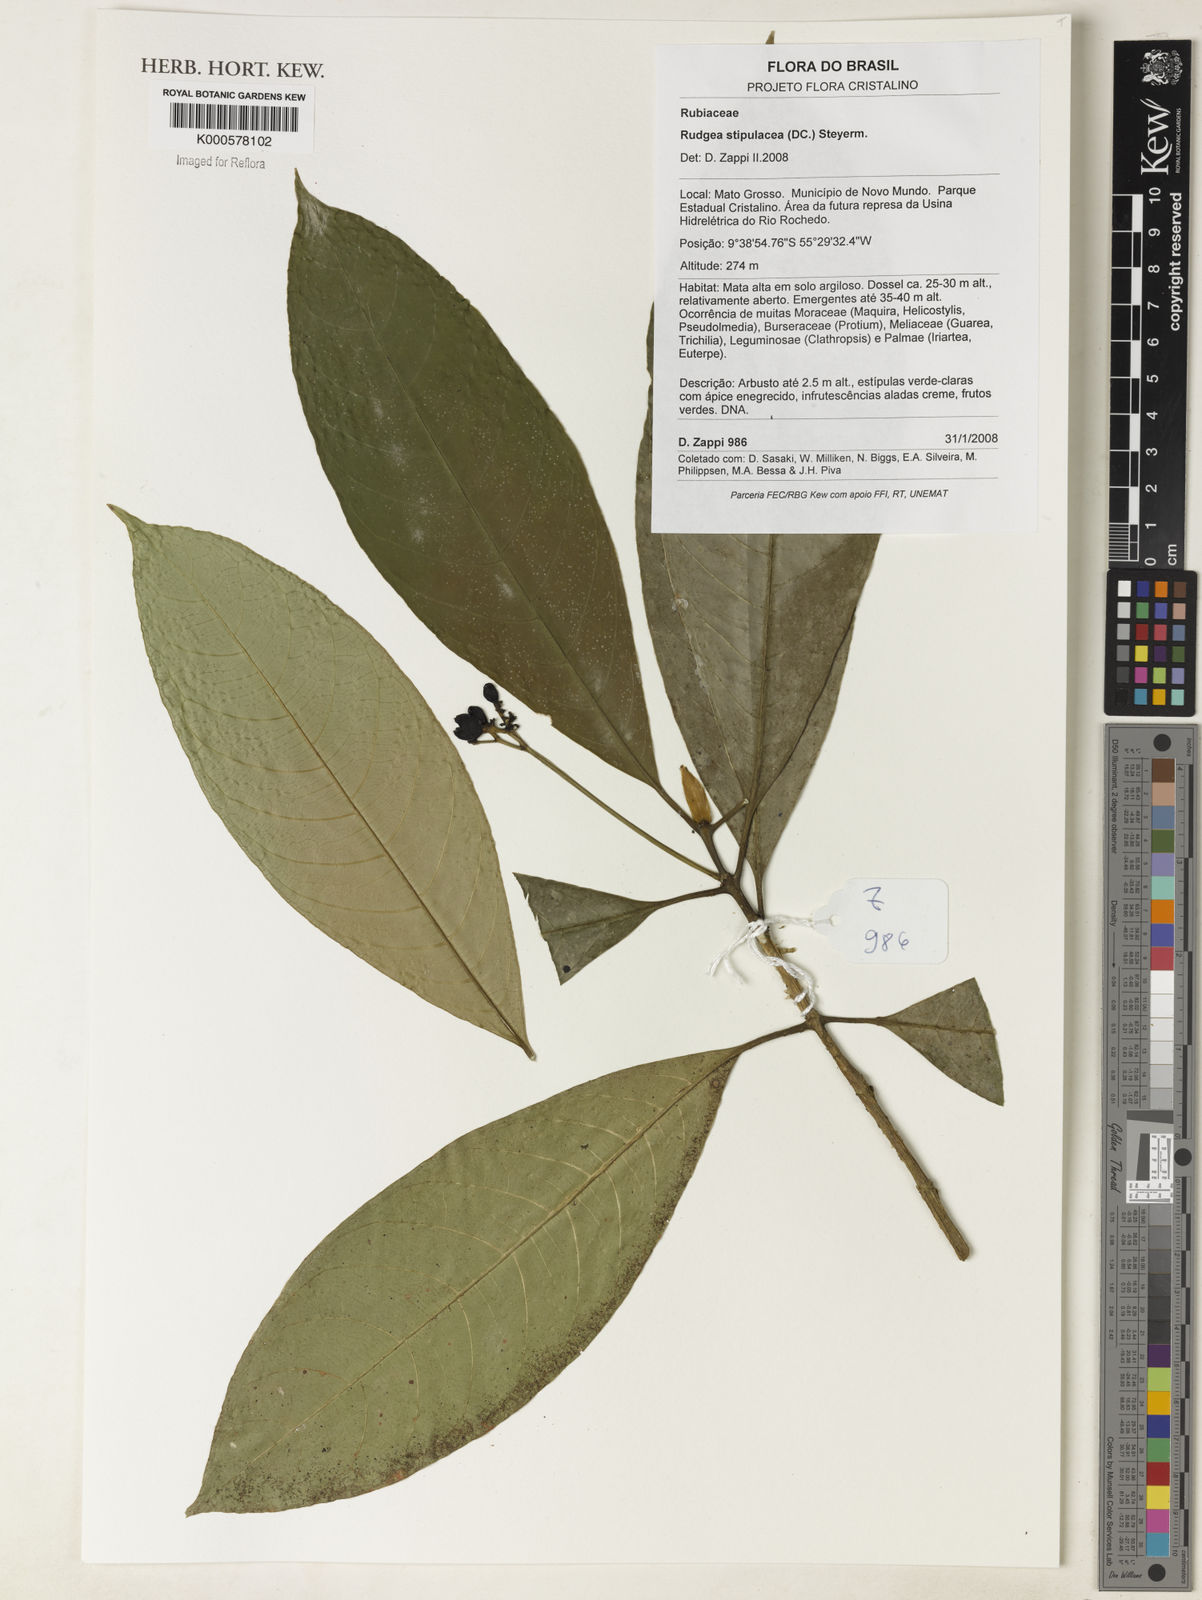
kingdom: Plantae
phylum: Tracheophyta
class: Magnoliopsida
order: Gentianales
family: Rubiaceae
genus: Rudgea
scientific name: Rudgea stipulacea
